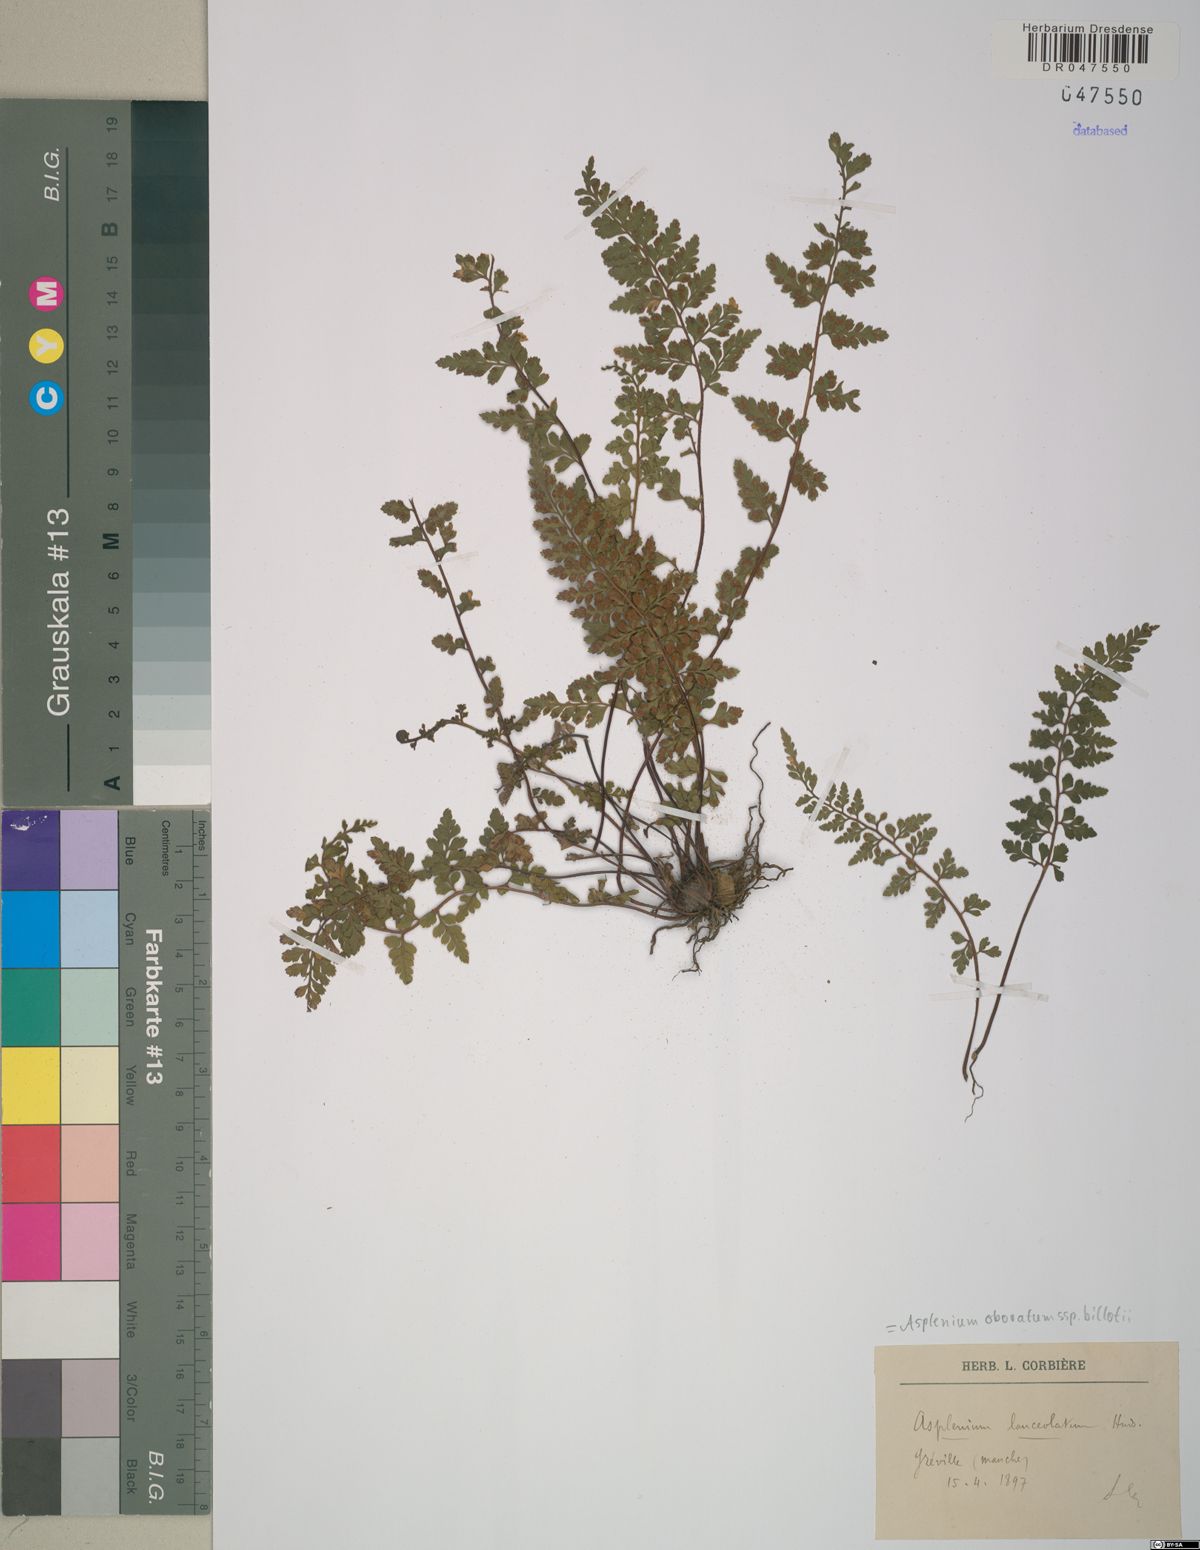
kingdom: Plantae
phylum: Tracheophyta
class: Polypodiopsida
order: Polypodiales
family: Aspleniaceae
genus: Asplenium
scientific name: Asplenium obovatum
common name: Lanceolate spleenwort
